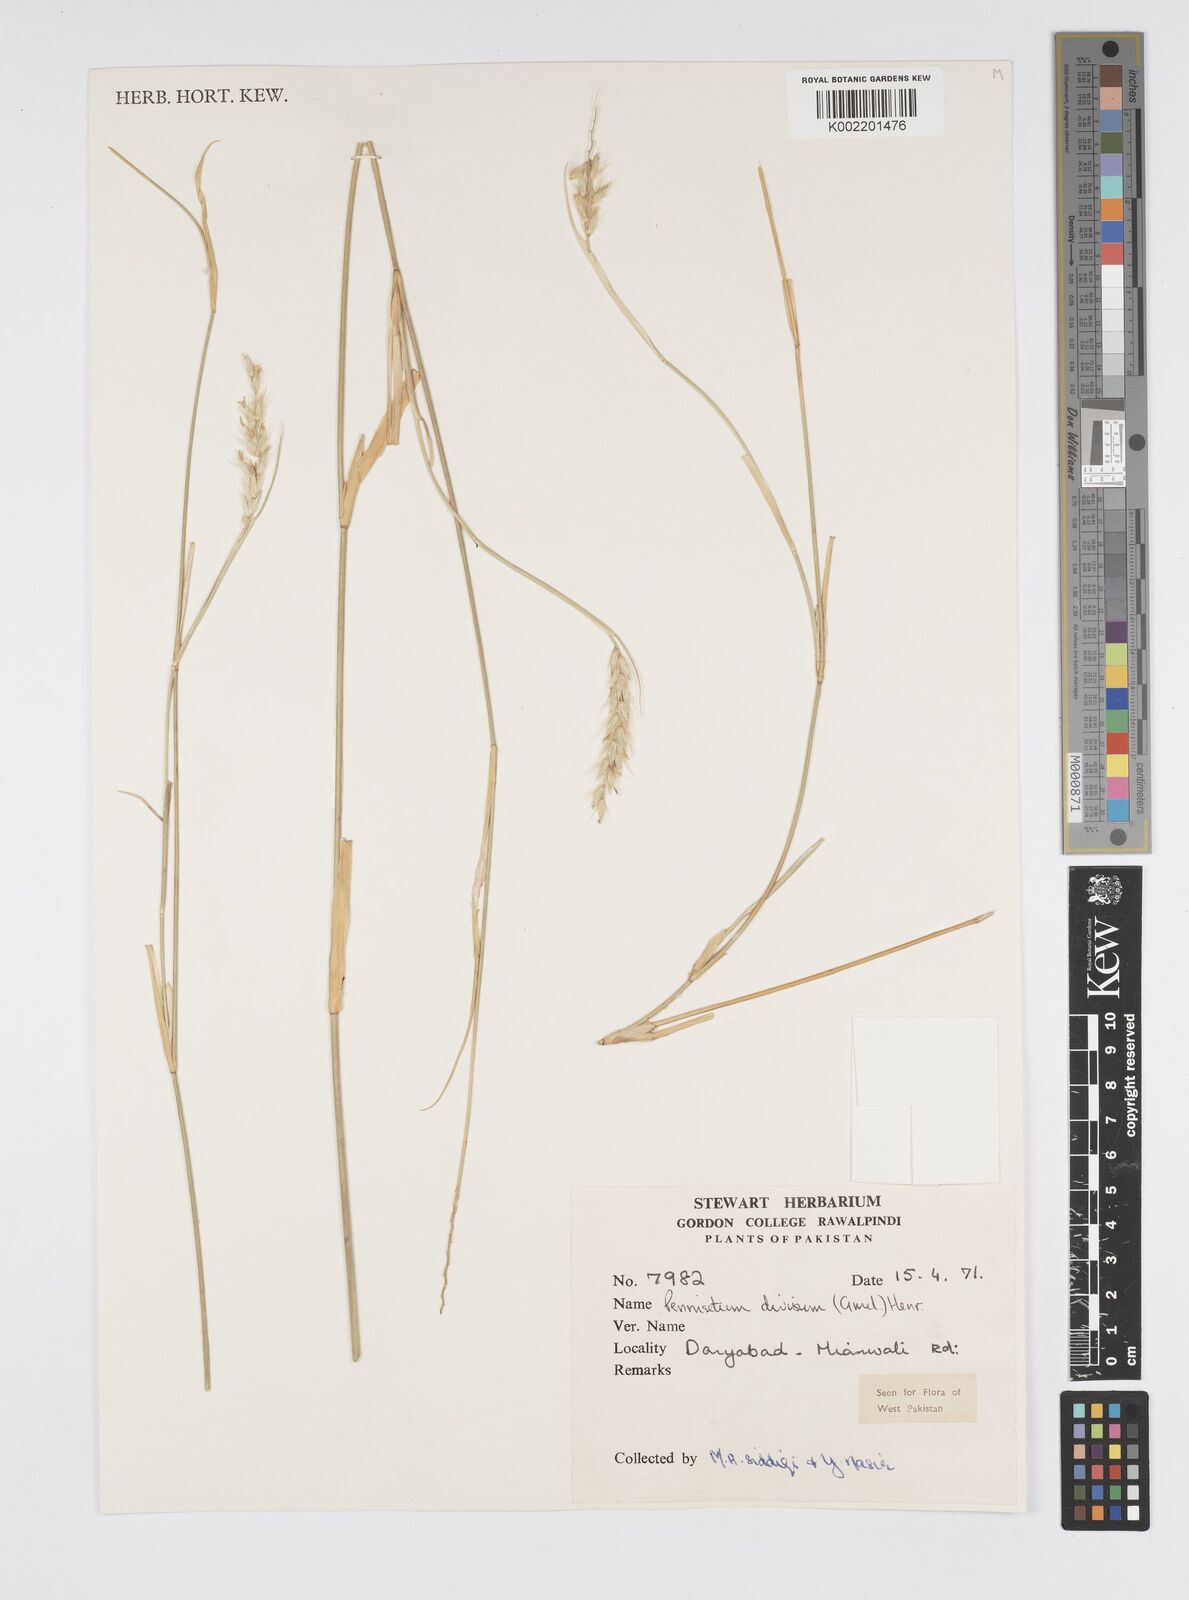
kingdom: Plantae
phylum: Tracheophyta
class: Liliopsida
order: Poales
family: Poaceae
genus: Cenchrus
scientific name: Cenchrus divisus
